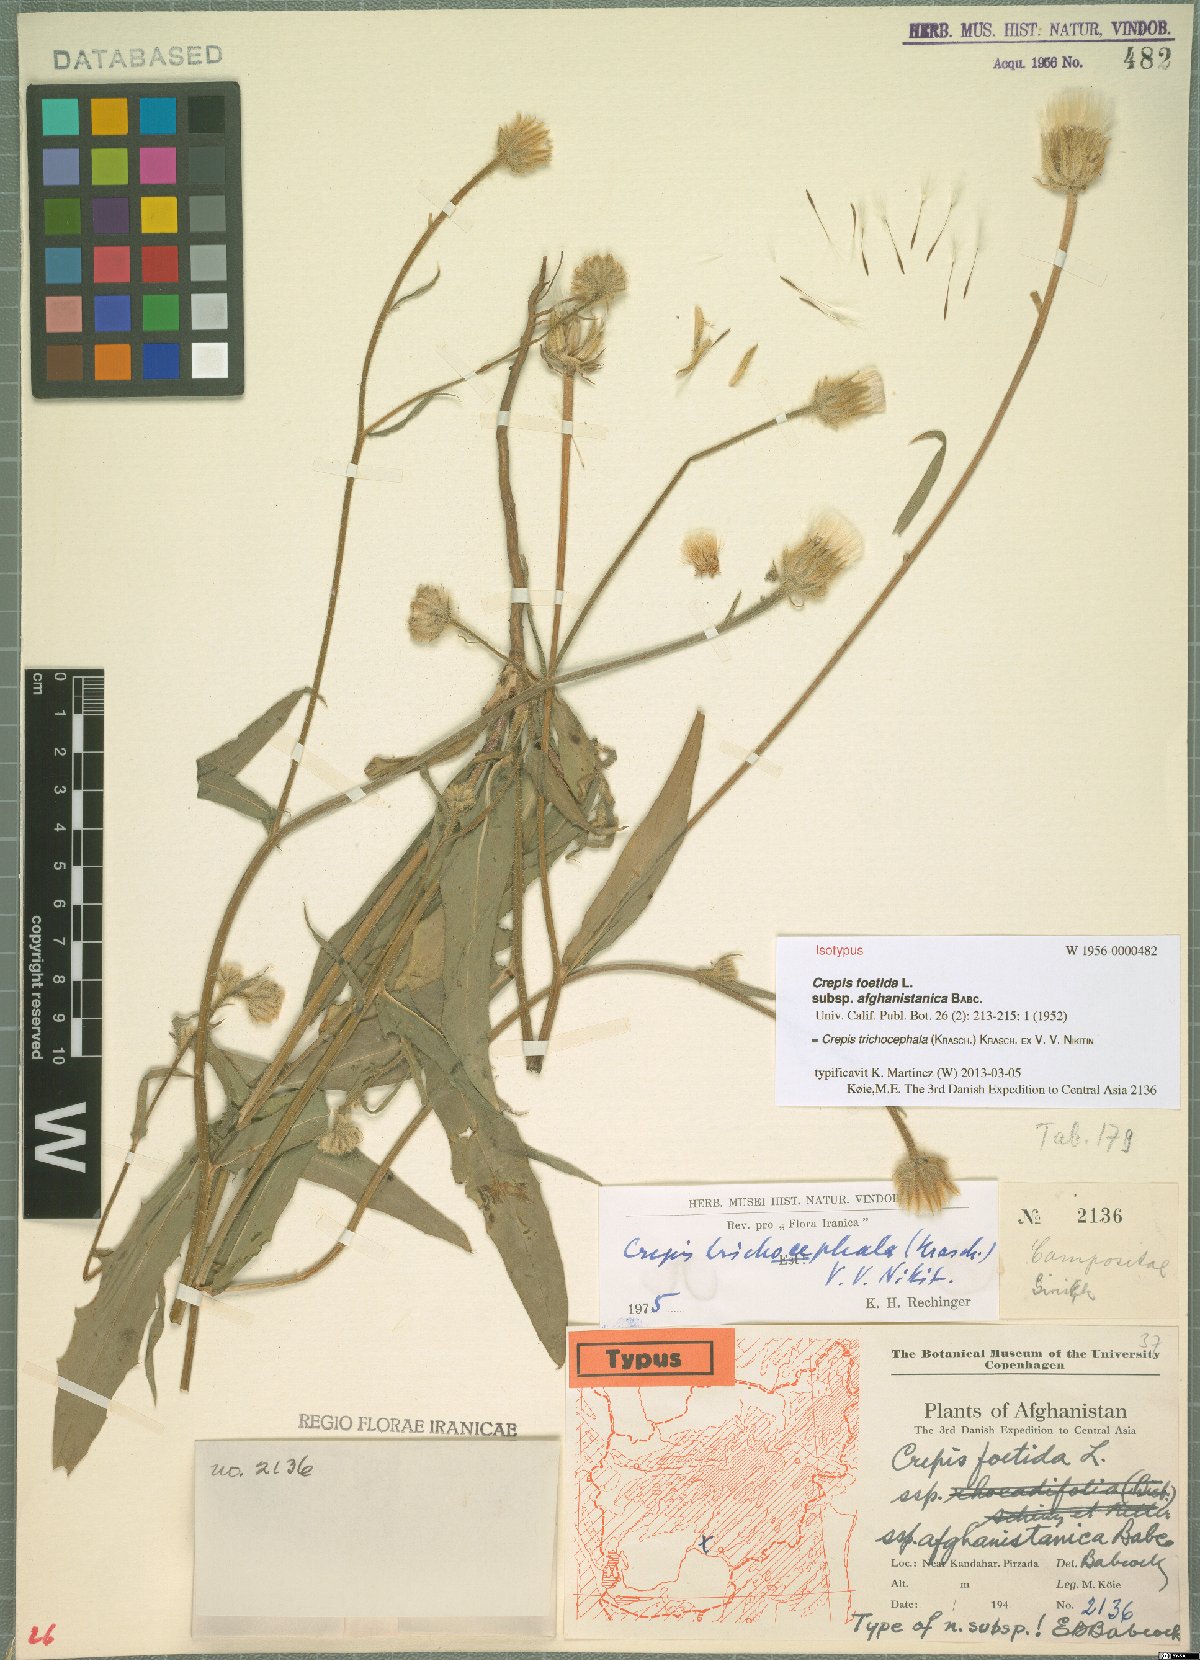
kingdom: Plantae
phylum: Tracheophyta
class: Magnoliopsida
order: Asterales
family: Asteraceae
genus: Crepis
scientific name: Crepis trichocephala
